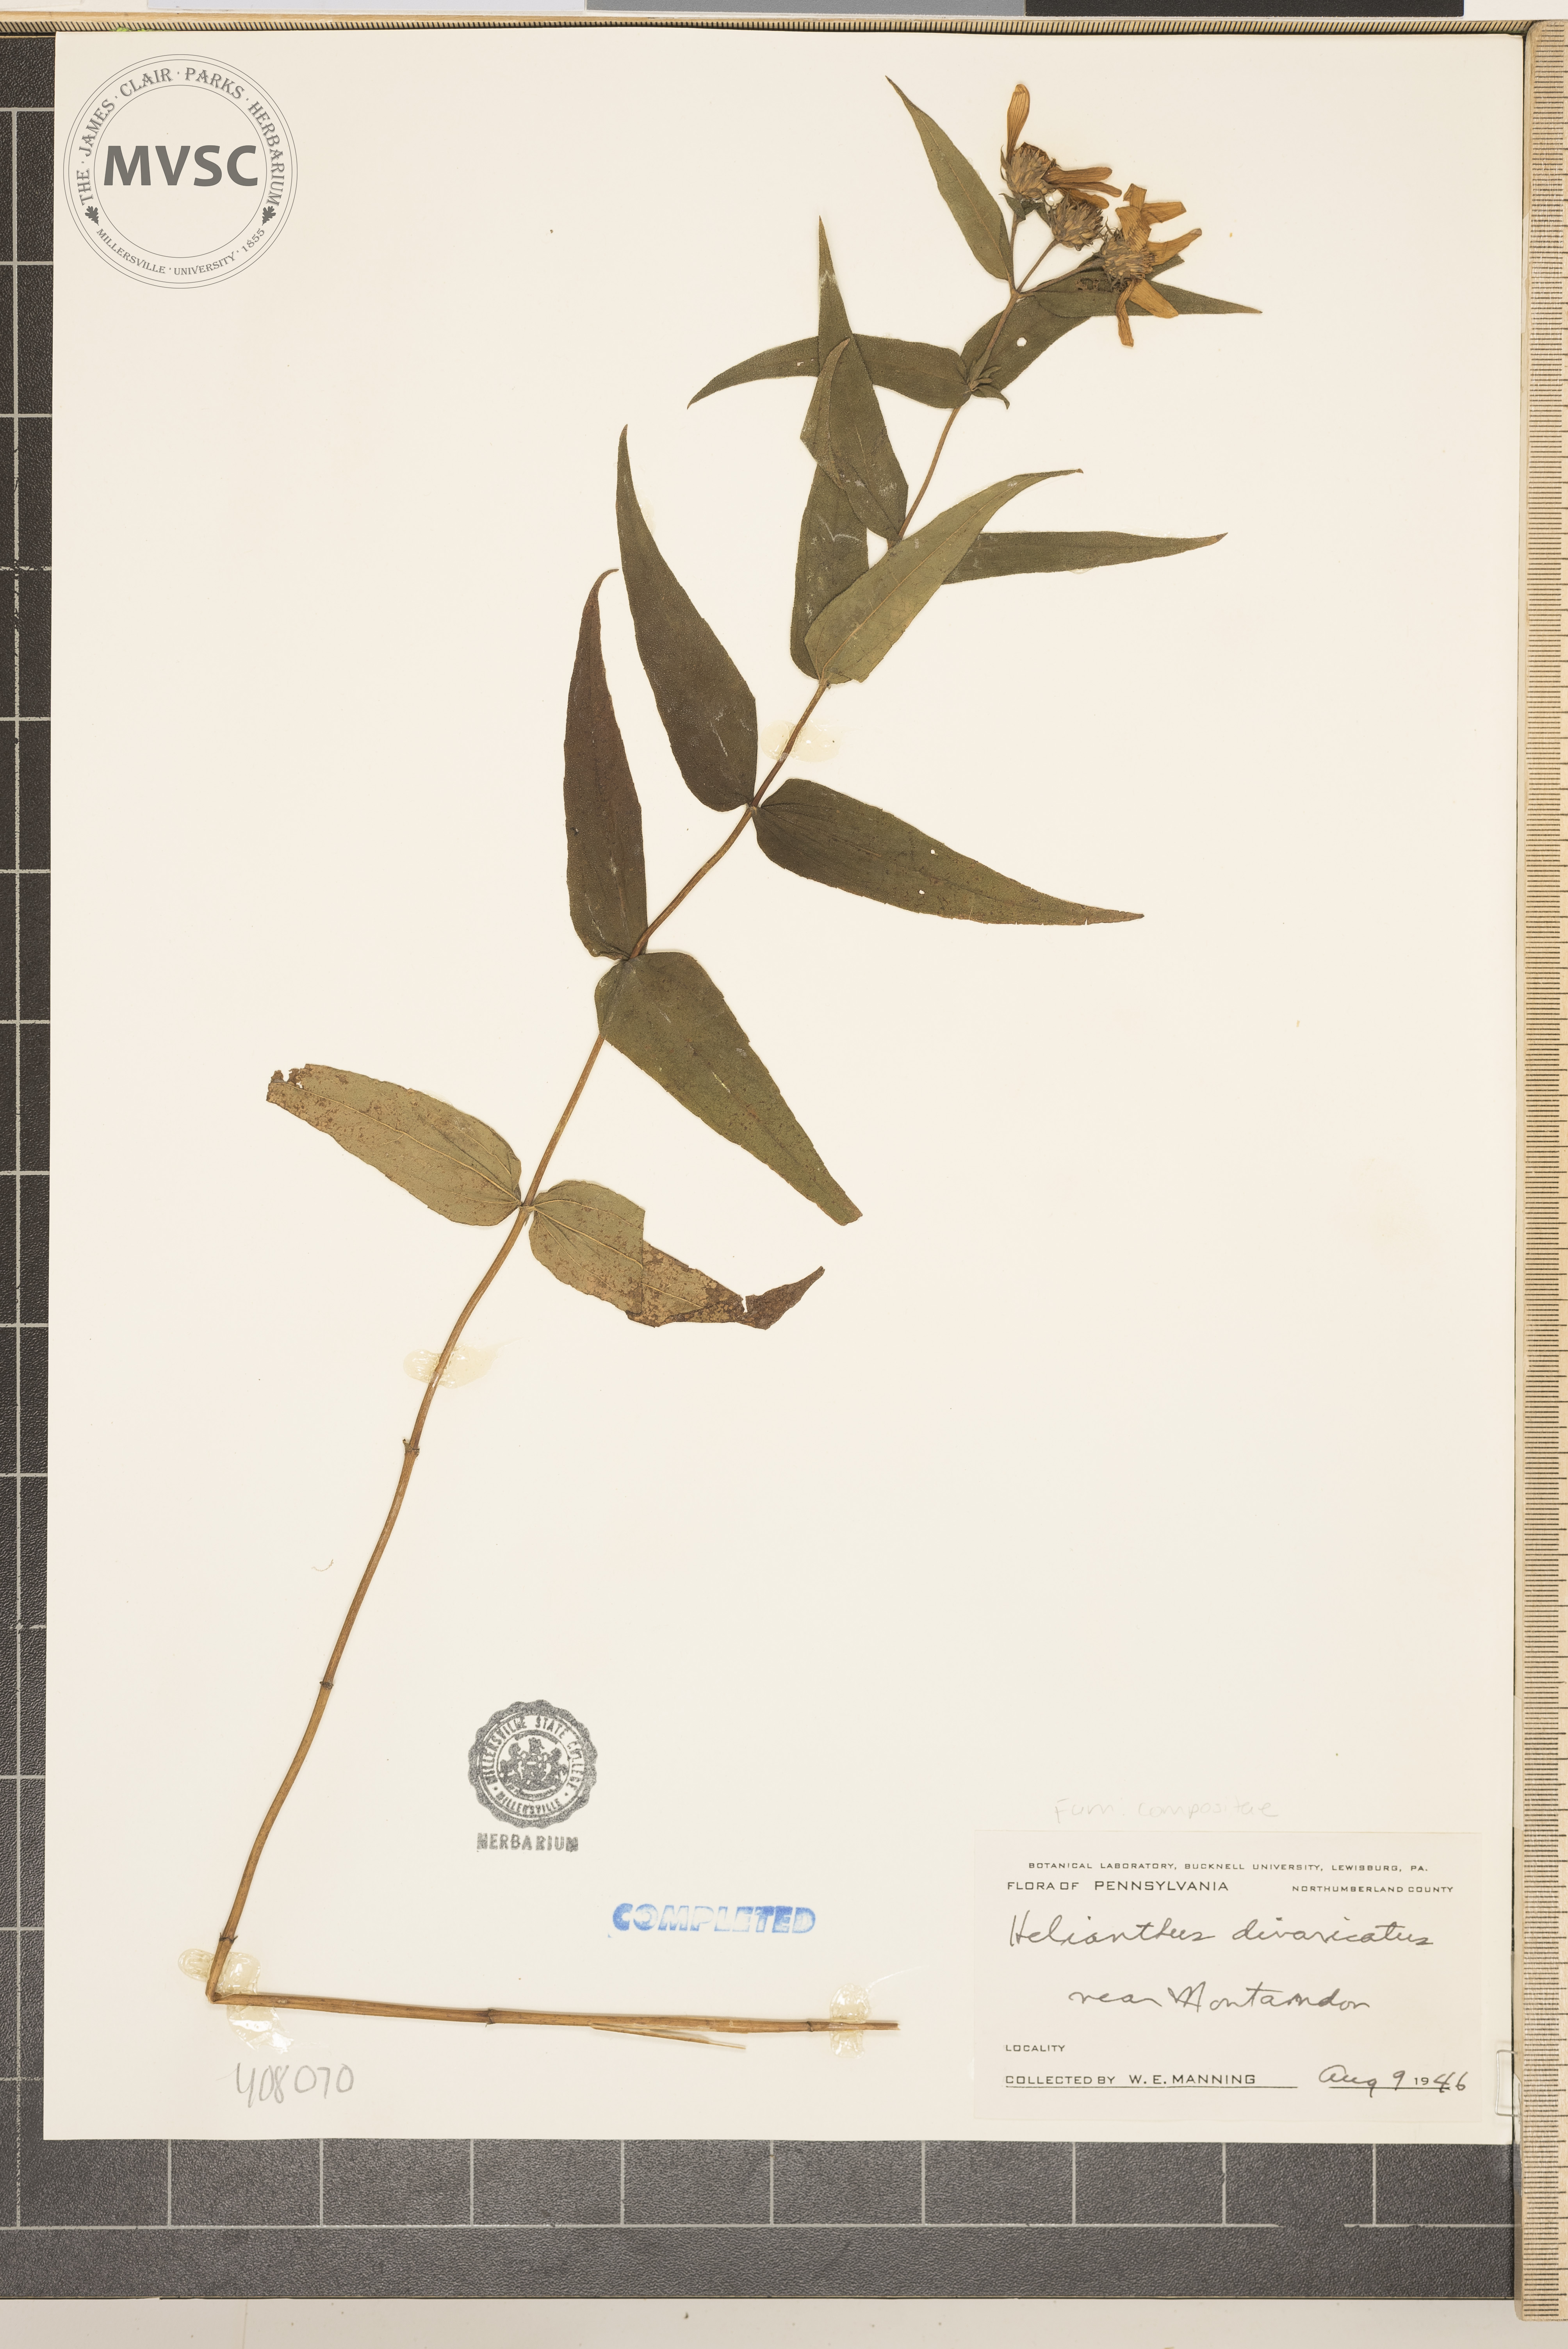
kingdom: Plantae
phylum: Tracheophyta
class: Magnoliopsida
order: Asterales
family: Asteraceae
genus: Helianthus
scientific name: Helianthus divaricatus
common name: Divergent sunflower
